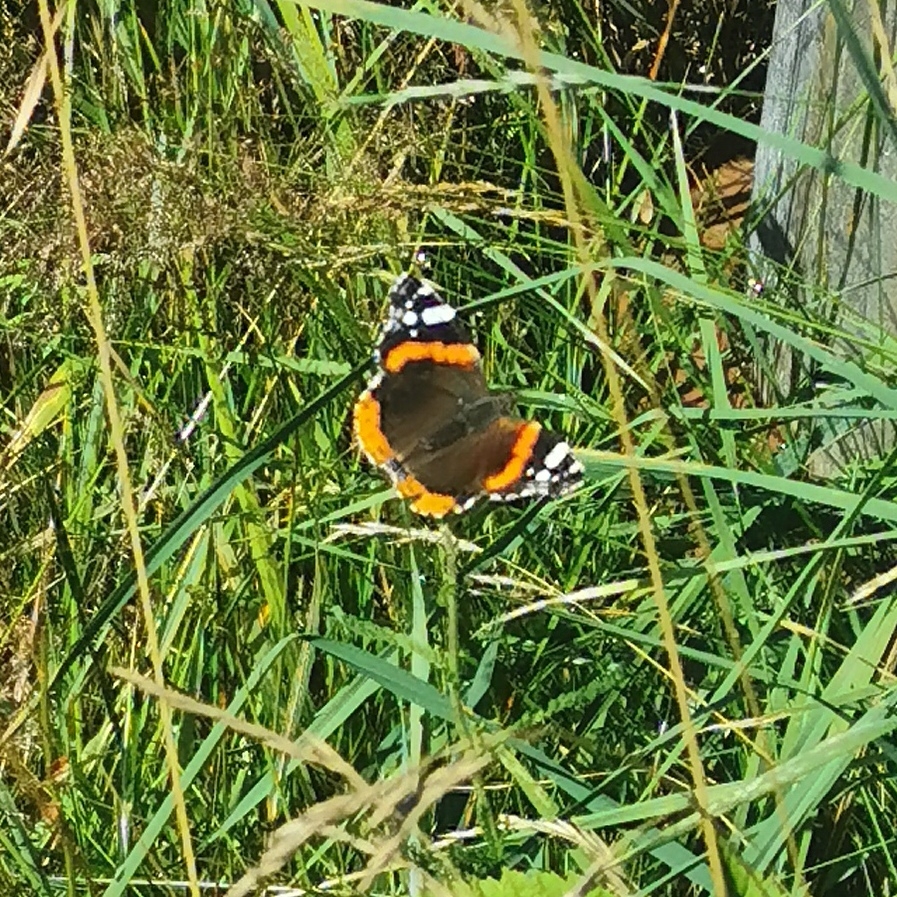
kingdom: Animalia
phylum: Arthropoda
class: Insecta
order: Lepidoptera
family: Nymphalidae
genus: Vanessa
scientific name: Vanessa atalanta
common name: Admiral
